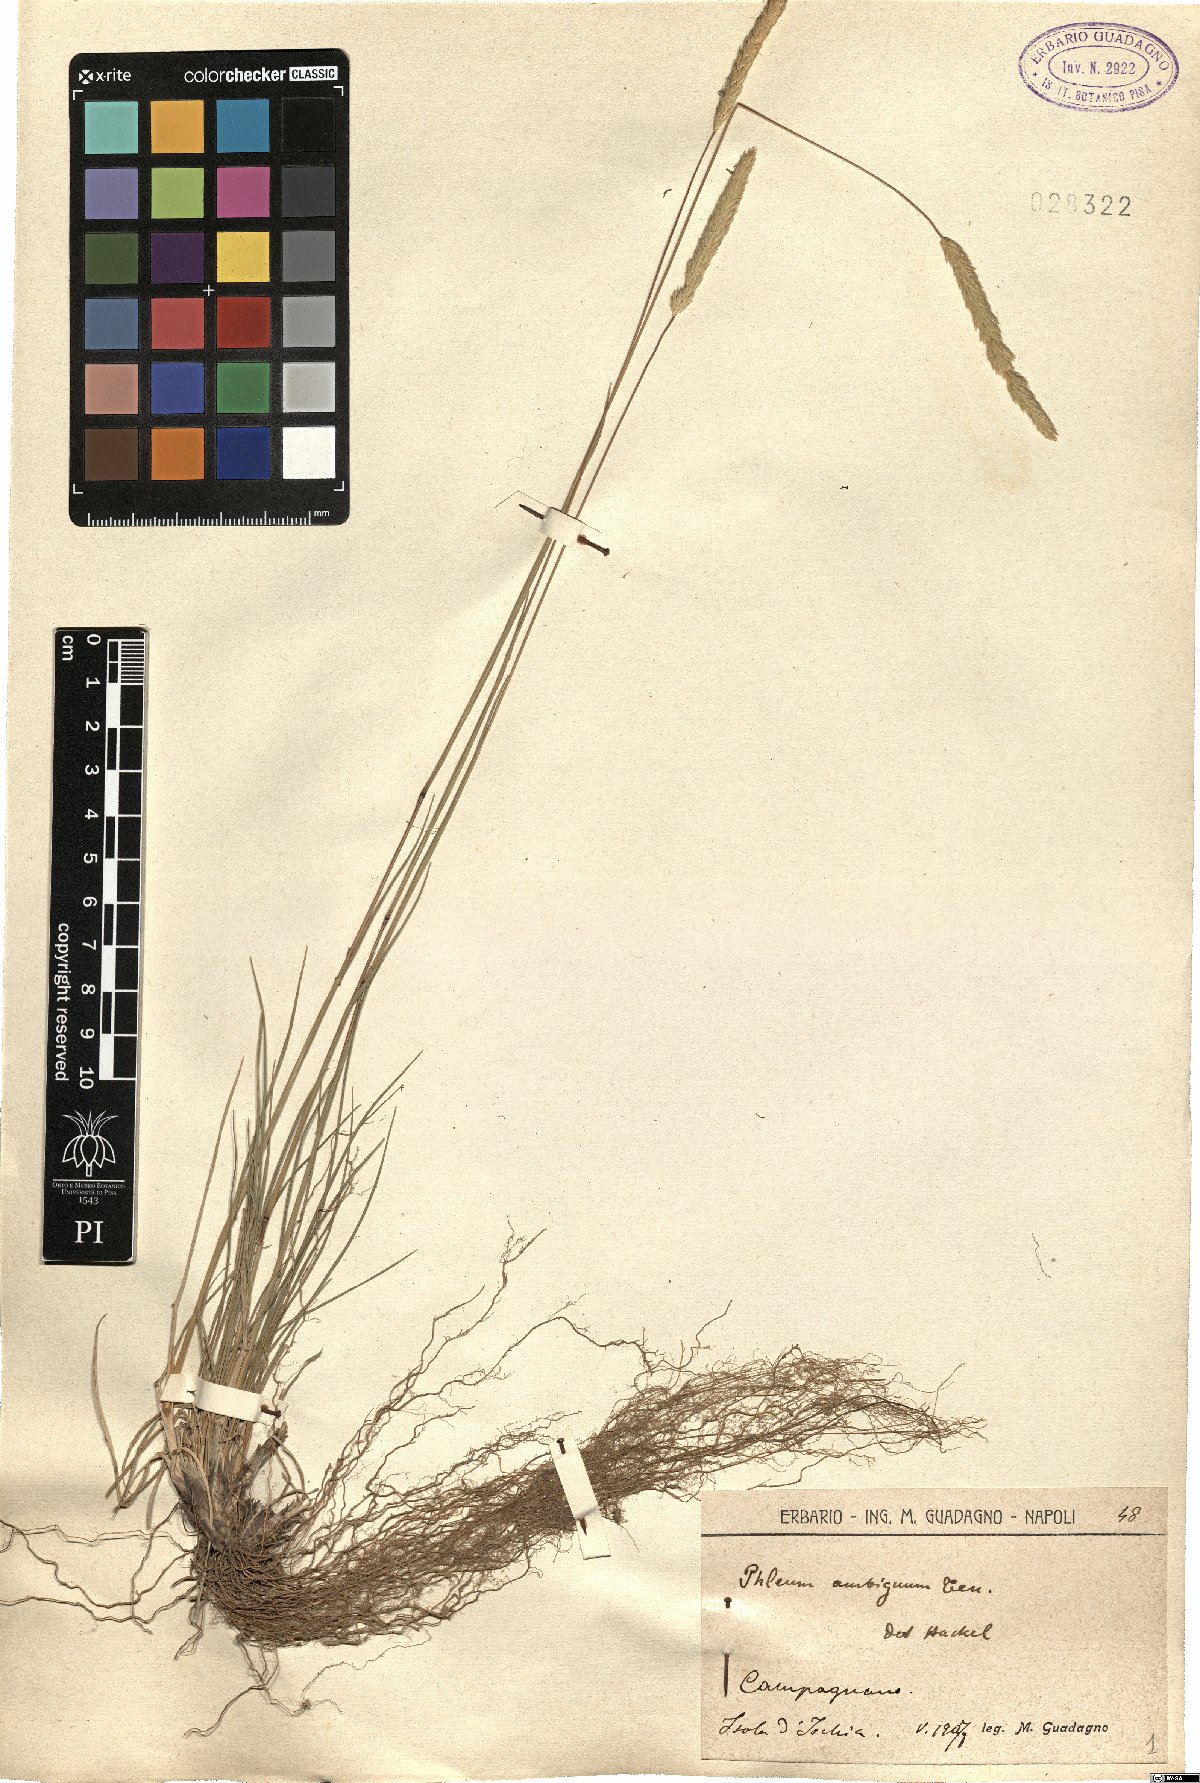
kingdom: Plantae
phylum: Tracheophyta
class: Liliopsida
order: Poales
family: Poaceae
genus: Phleum
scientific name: Phleum hirsutum
